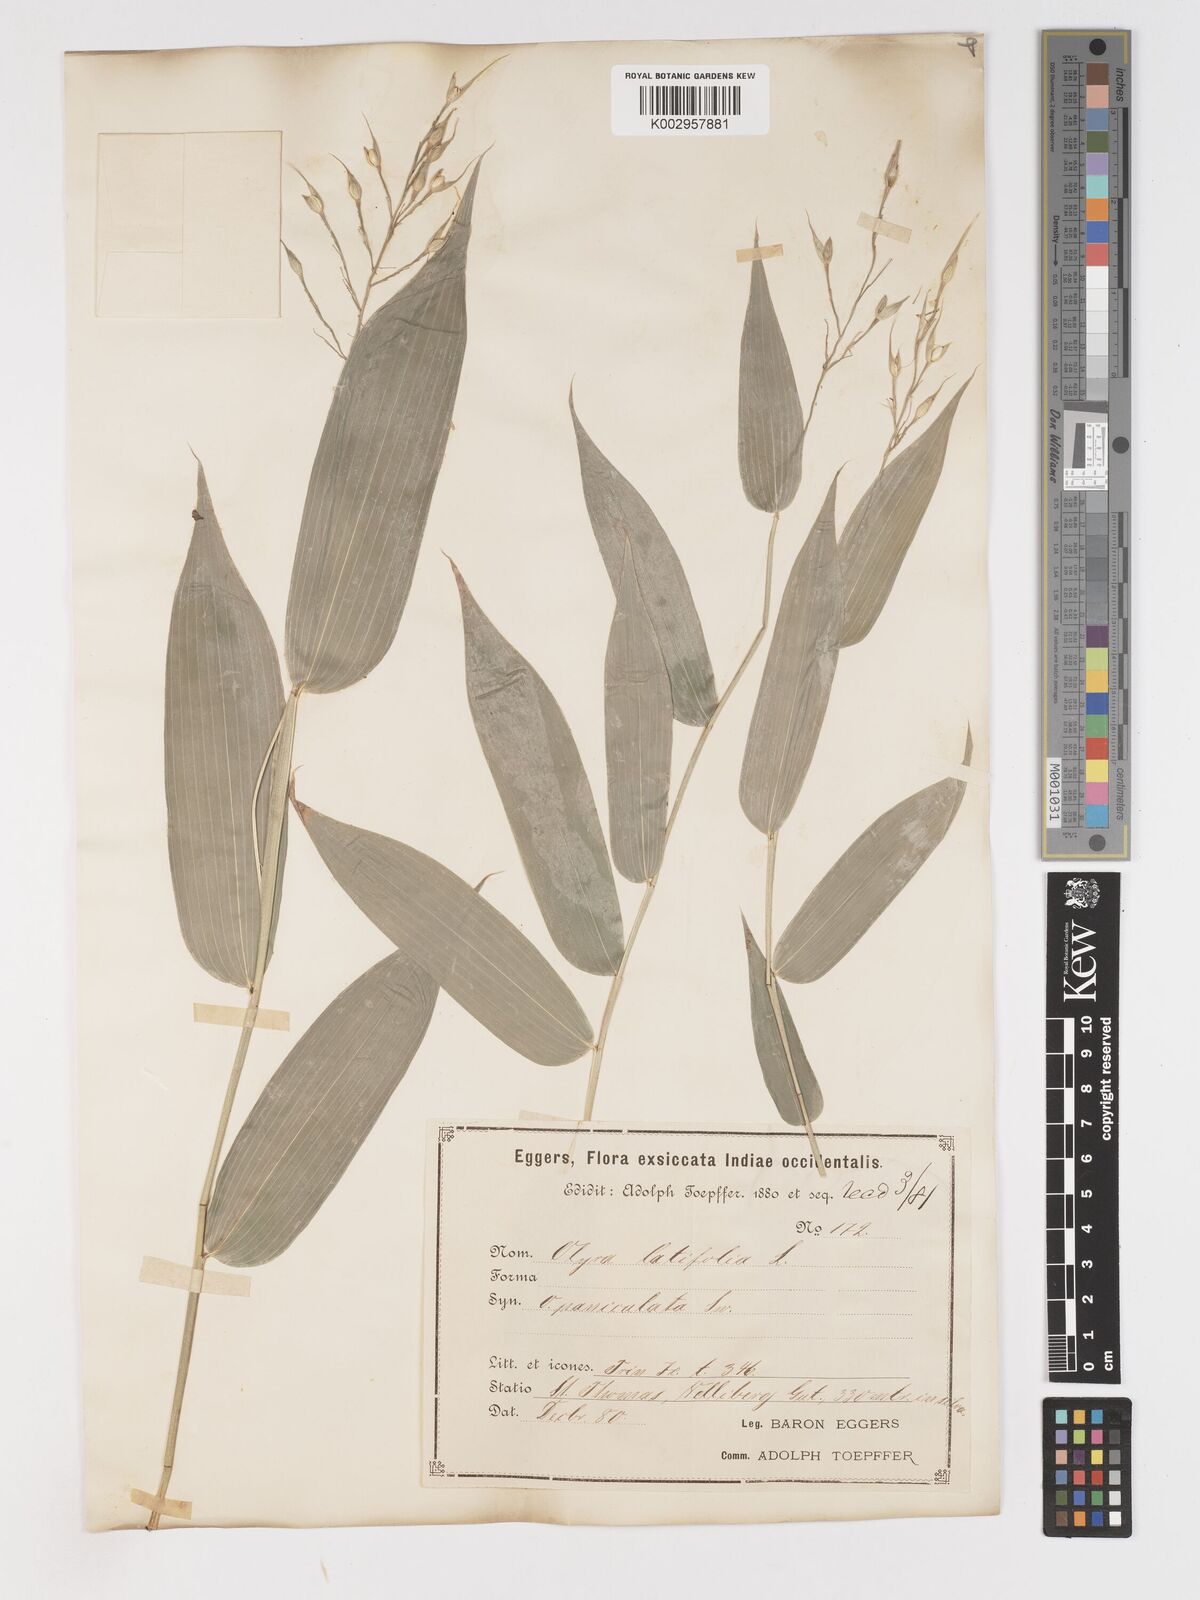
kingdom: Plantae
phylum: Tracheophyta
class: Liliopsida
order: Poales
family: Poaceae
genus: Olyra
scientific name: Olyra latifolia
